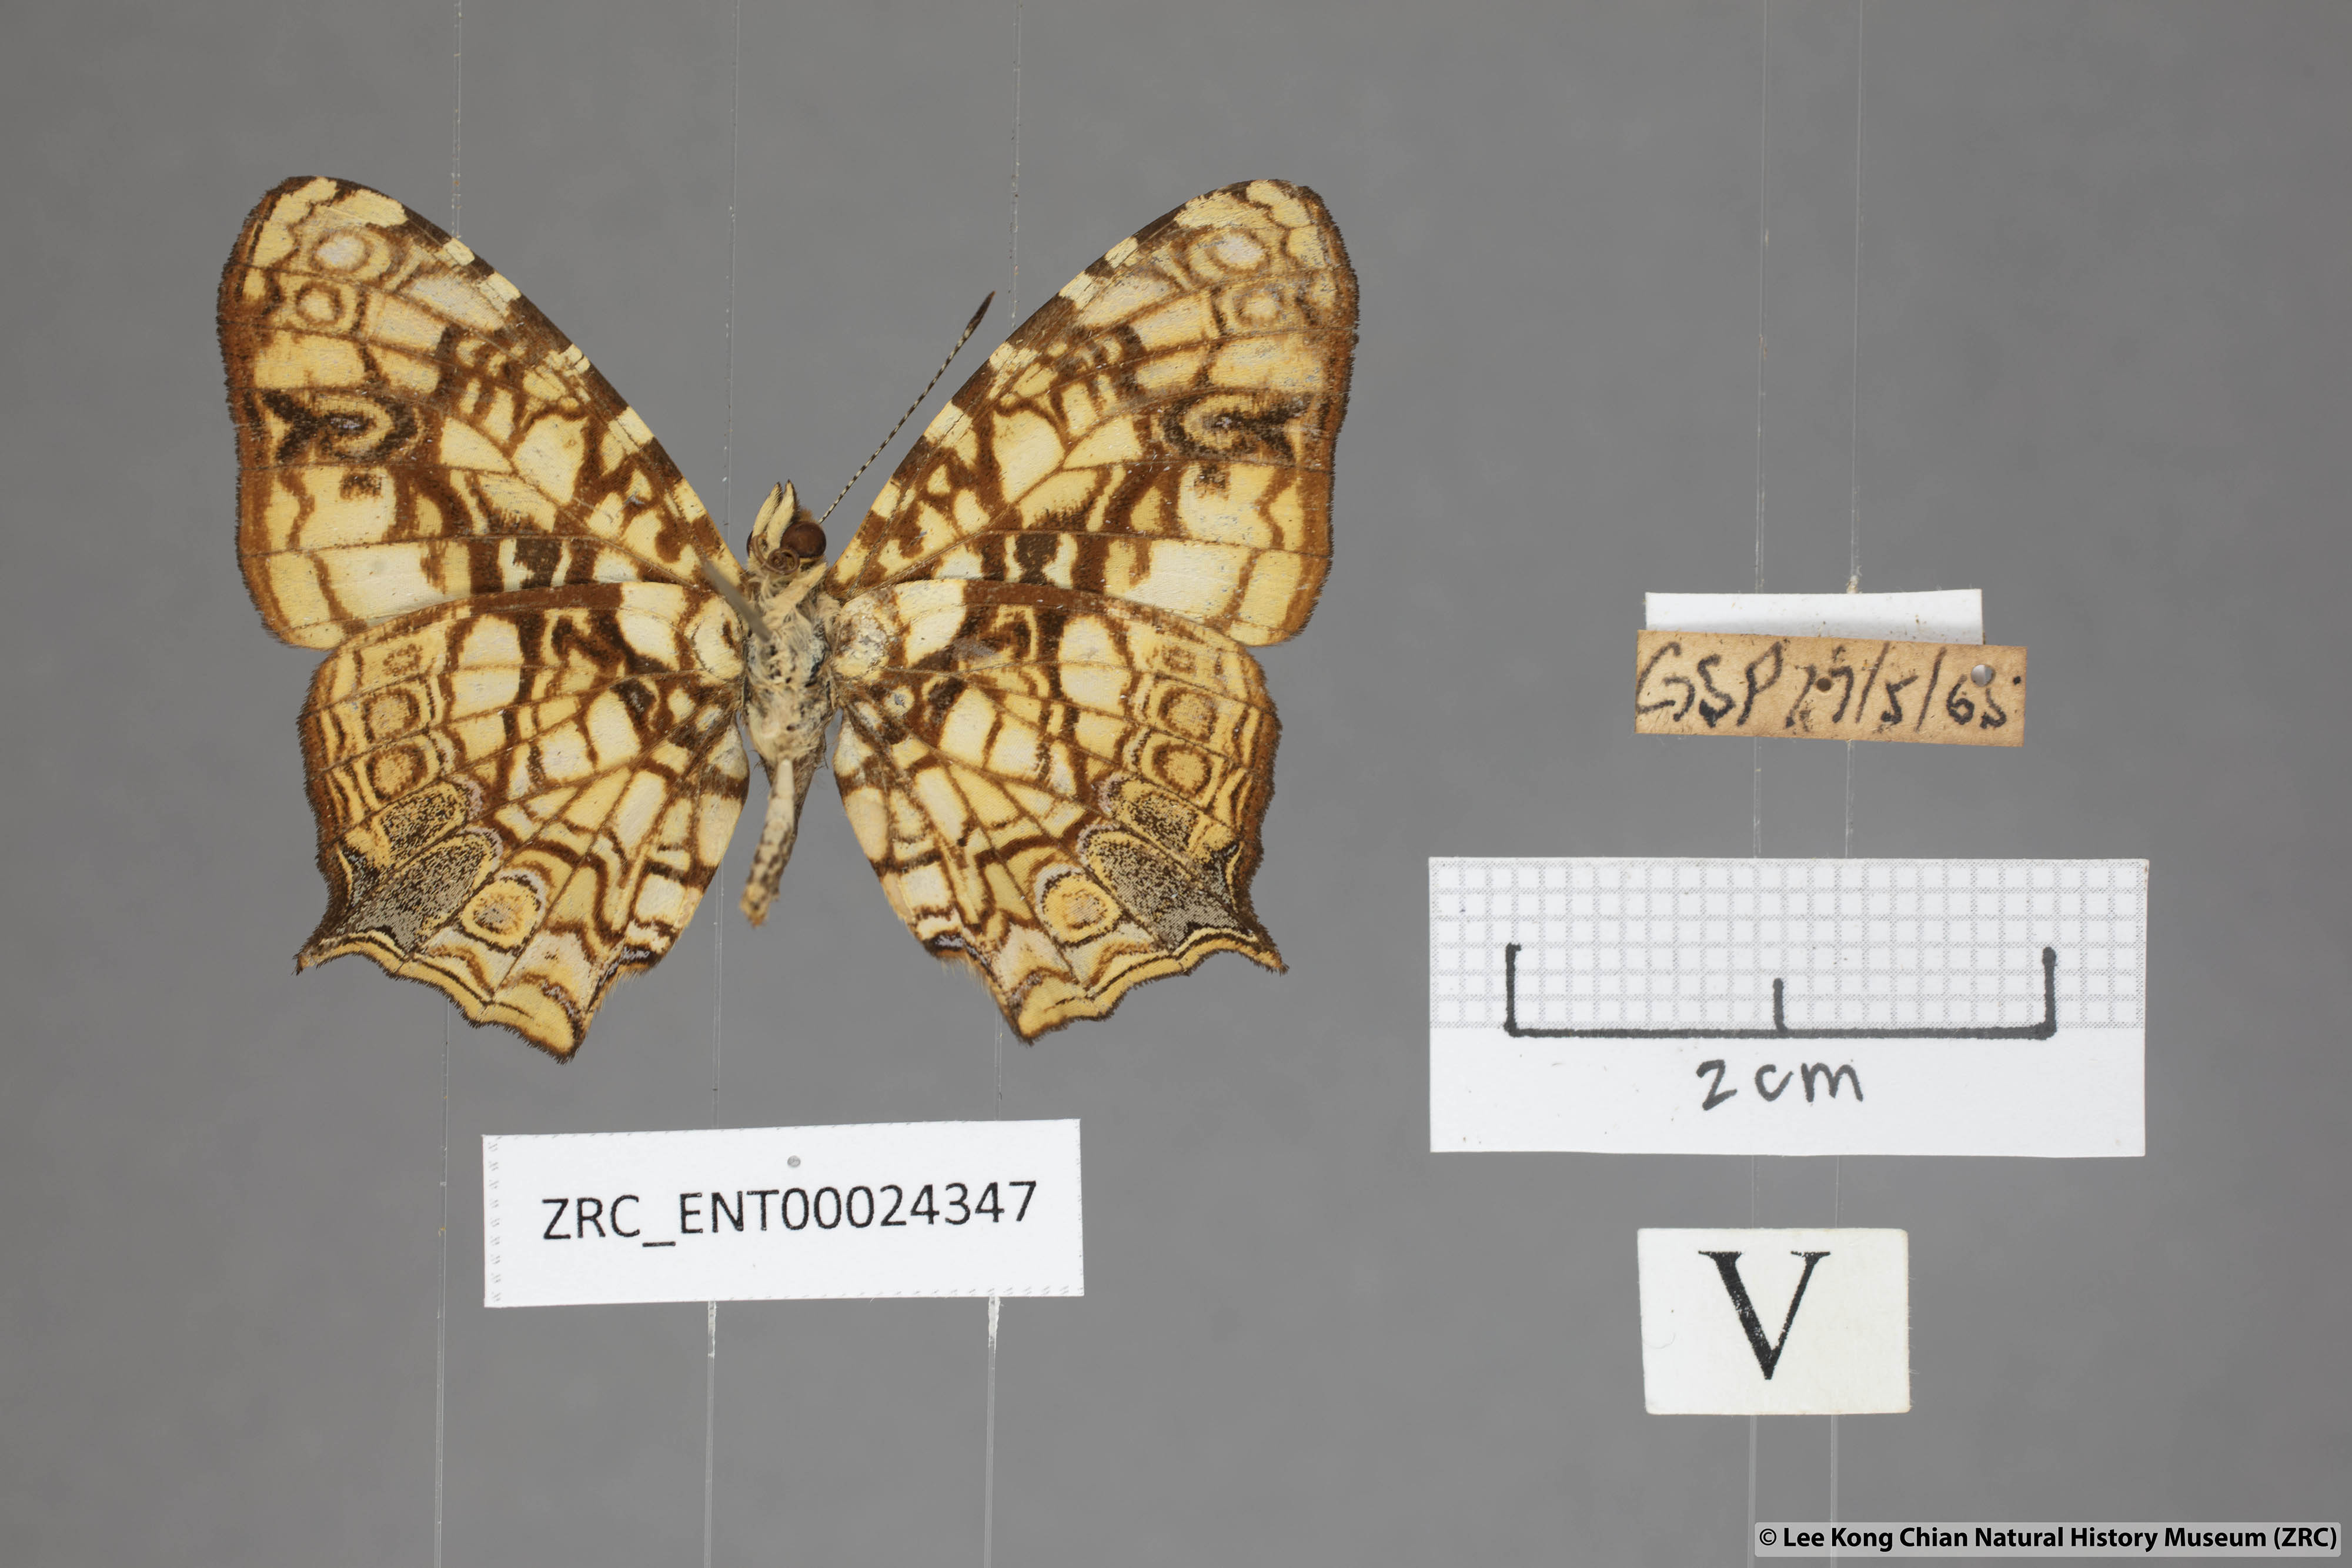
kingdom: Animalia
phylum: Arthropoda
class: Insecta
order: Lepidoptera
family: Nymphalidae
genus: Symbrenthia
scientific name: Symbrenthia hypatia
